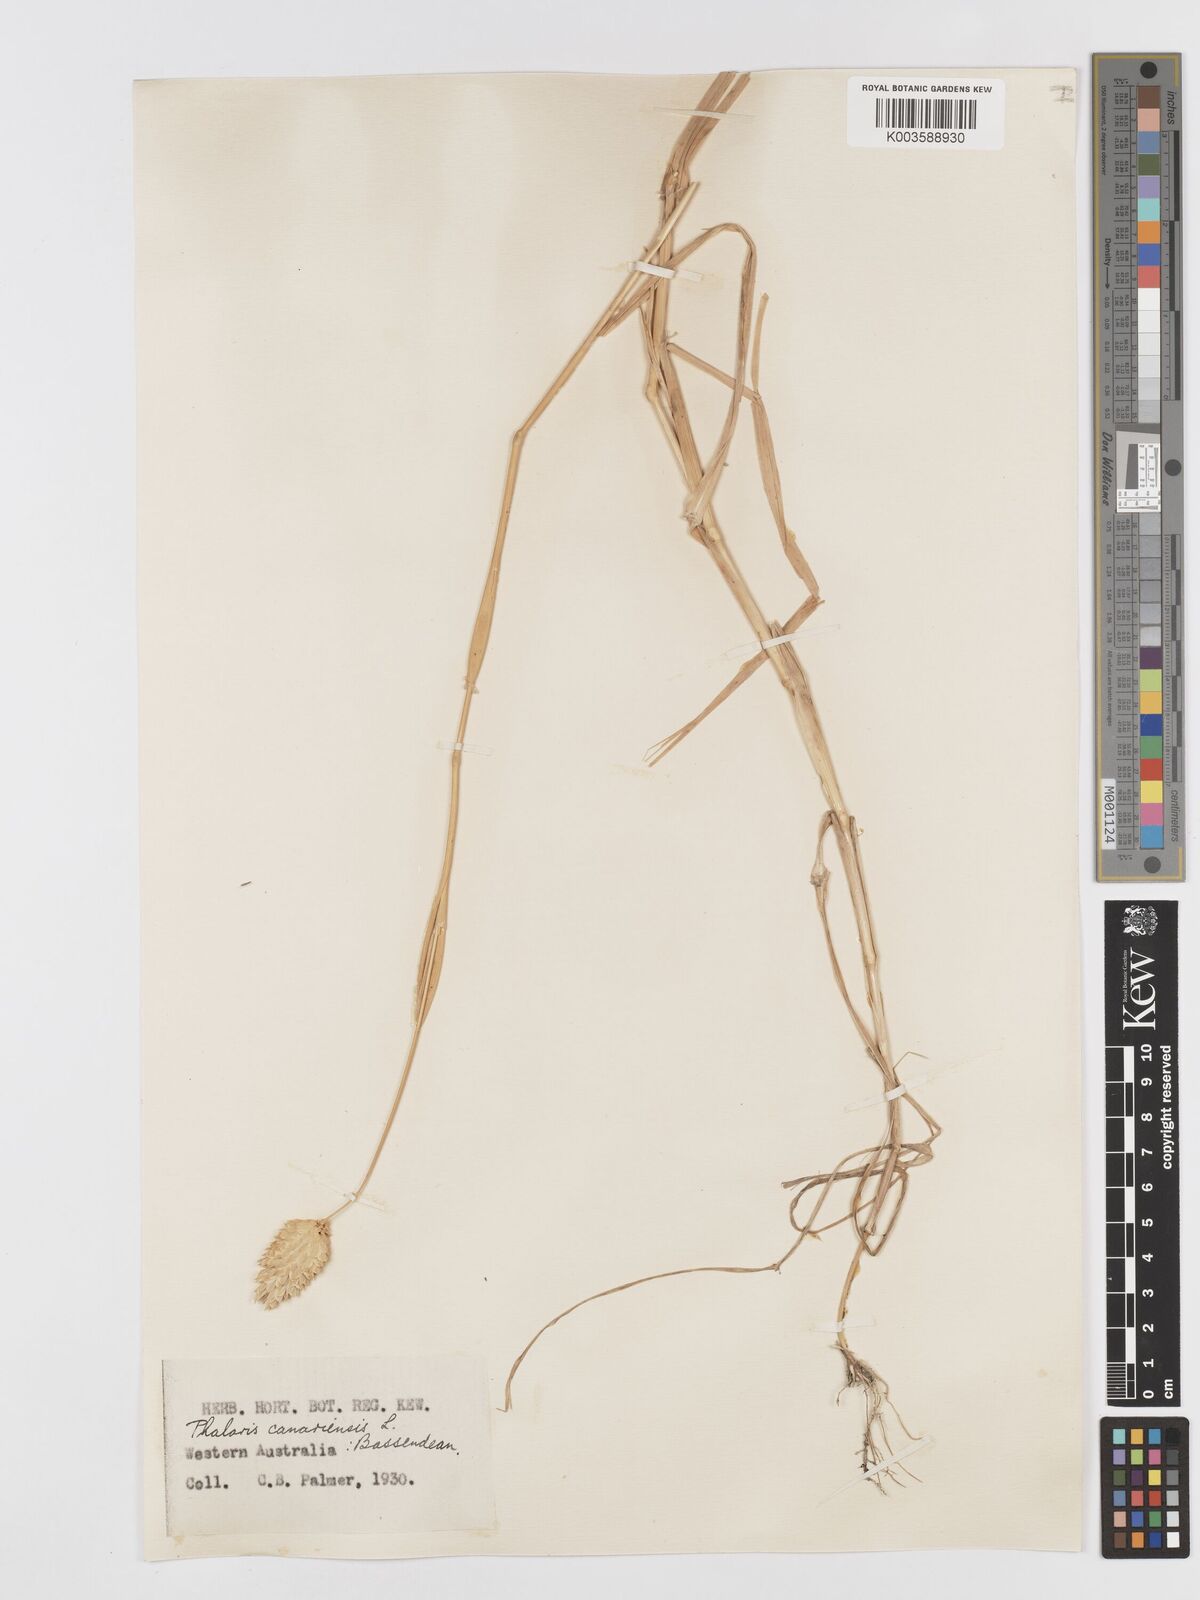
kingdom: Plantae
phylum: Tracheophyta
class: Liliopsida
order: Poales
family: Poaceae
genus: Phalaris
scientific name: Phalaris canariensis
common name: Annual canarygrass
